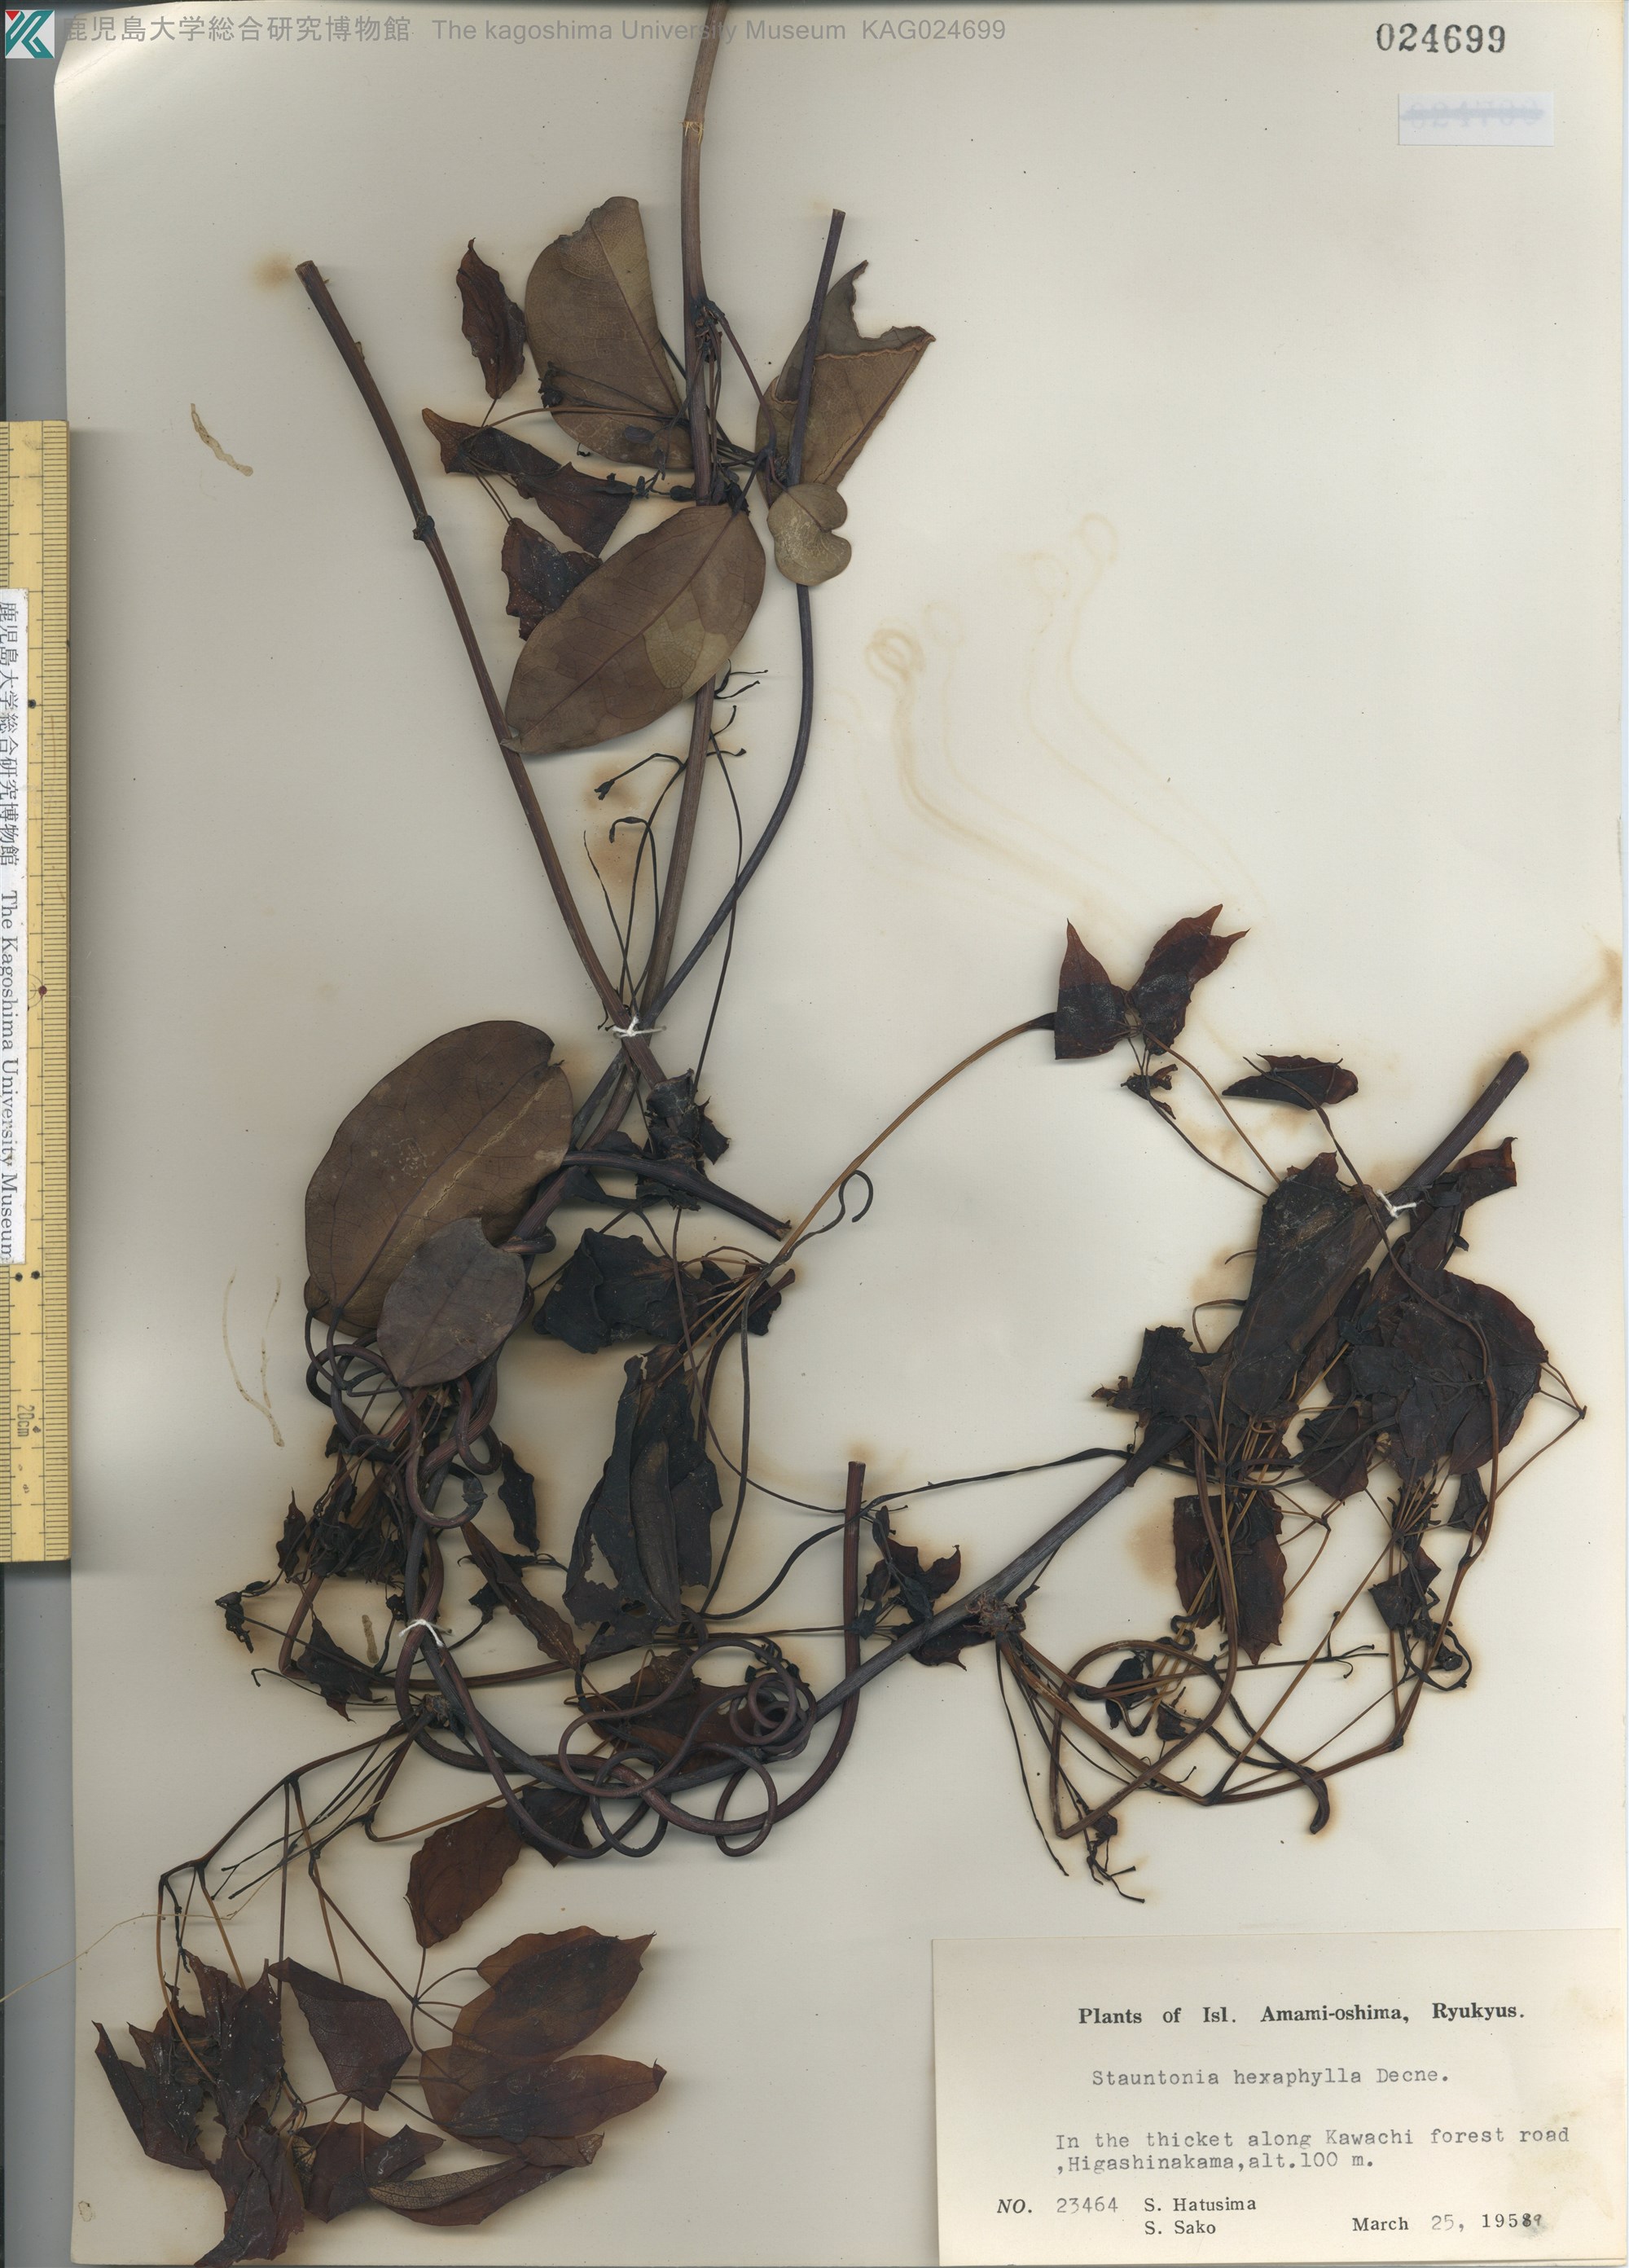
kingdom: Plantae
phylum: Tracheophyta
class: Magnoliopsida
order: Ranunculales
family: Lardizabalaceae
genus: Stauntonia
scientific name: Stauntonia hexaphylla
